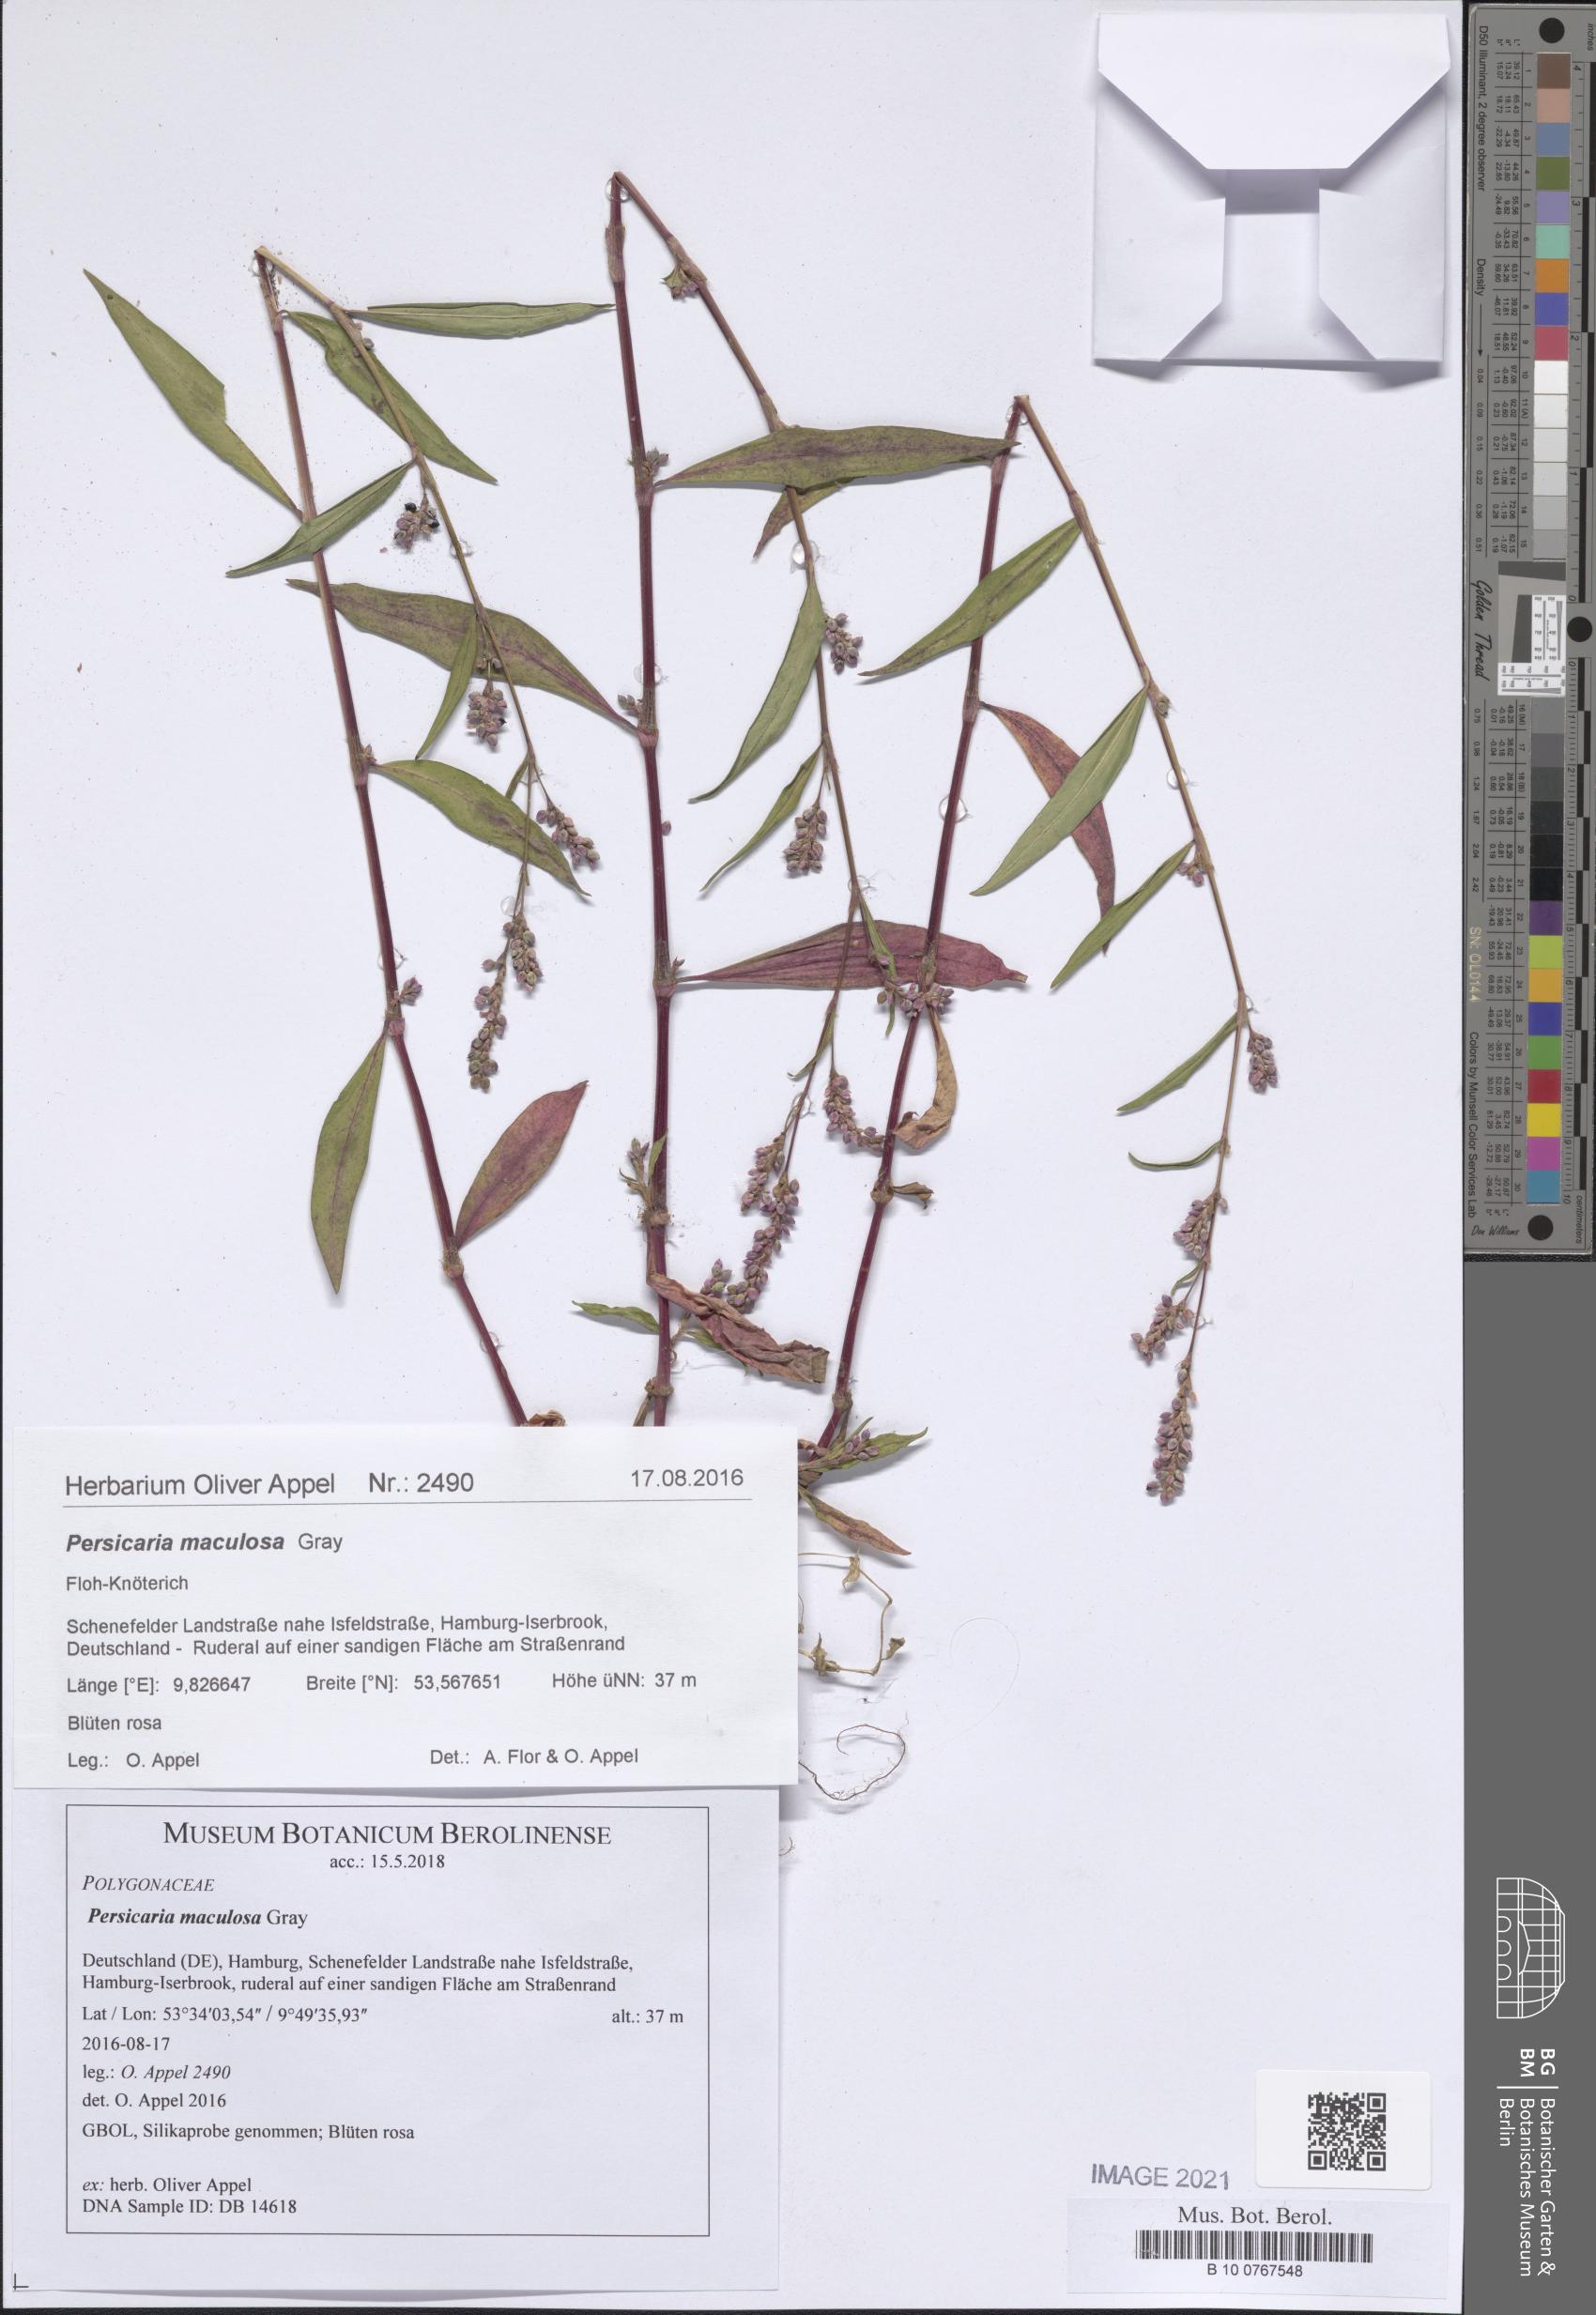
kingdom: Plantae
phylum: Tracheophyta
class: Magnoliopsida
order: Caryophyllales
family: Polygonaceae
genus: Persicaria
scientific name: Persicaria maculosa
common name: Redshank
